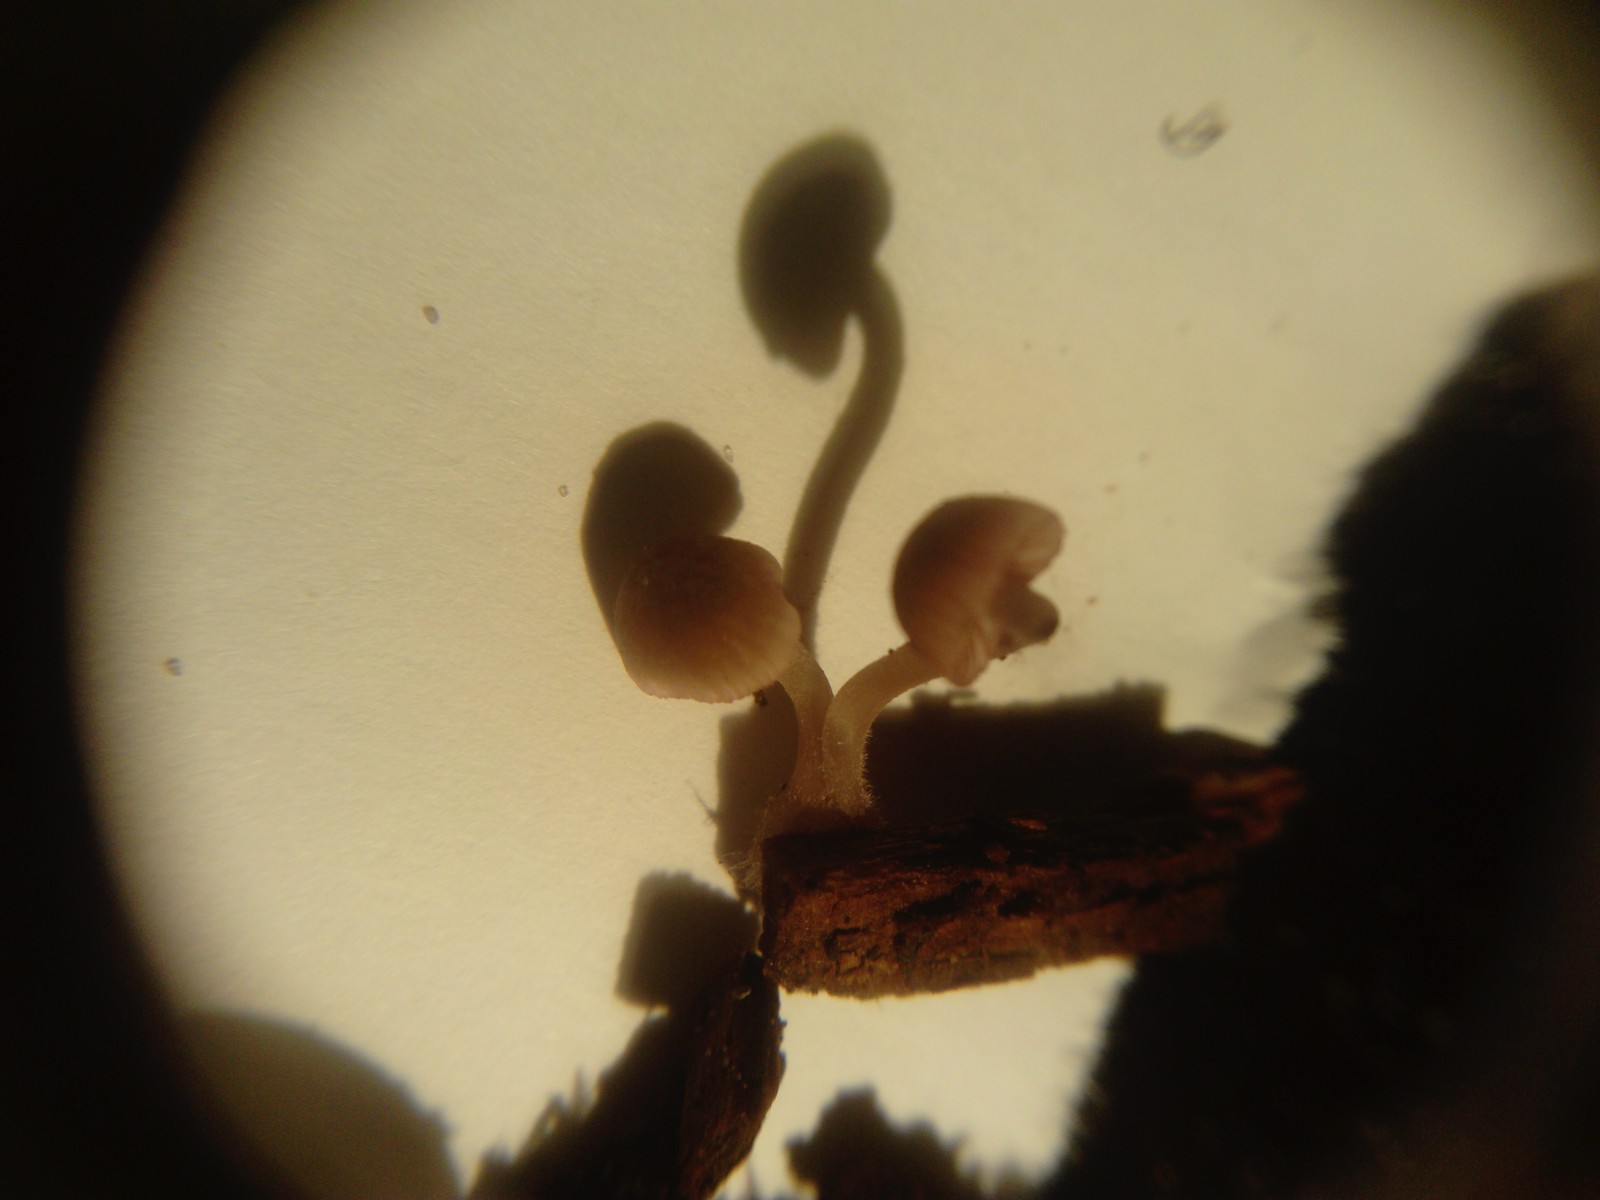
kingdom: Fungi
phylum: Basidiomycota
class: Agaricomycetes
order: Agaricales
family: Mycenaceae
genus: Mycena
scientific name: Mycena rubromarginata
